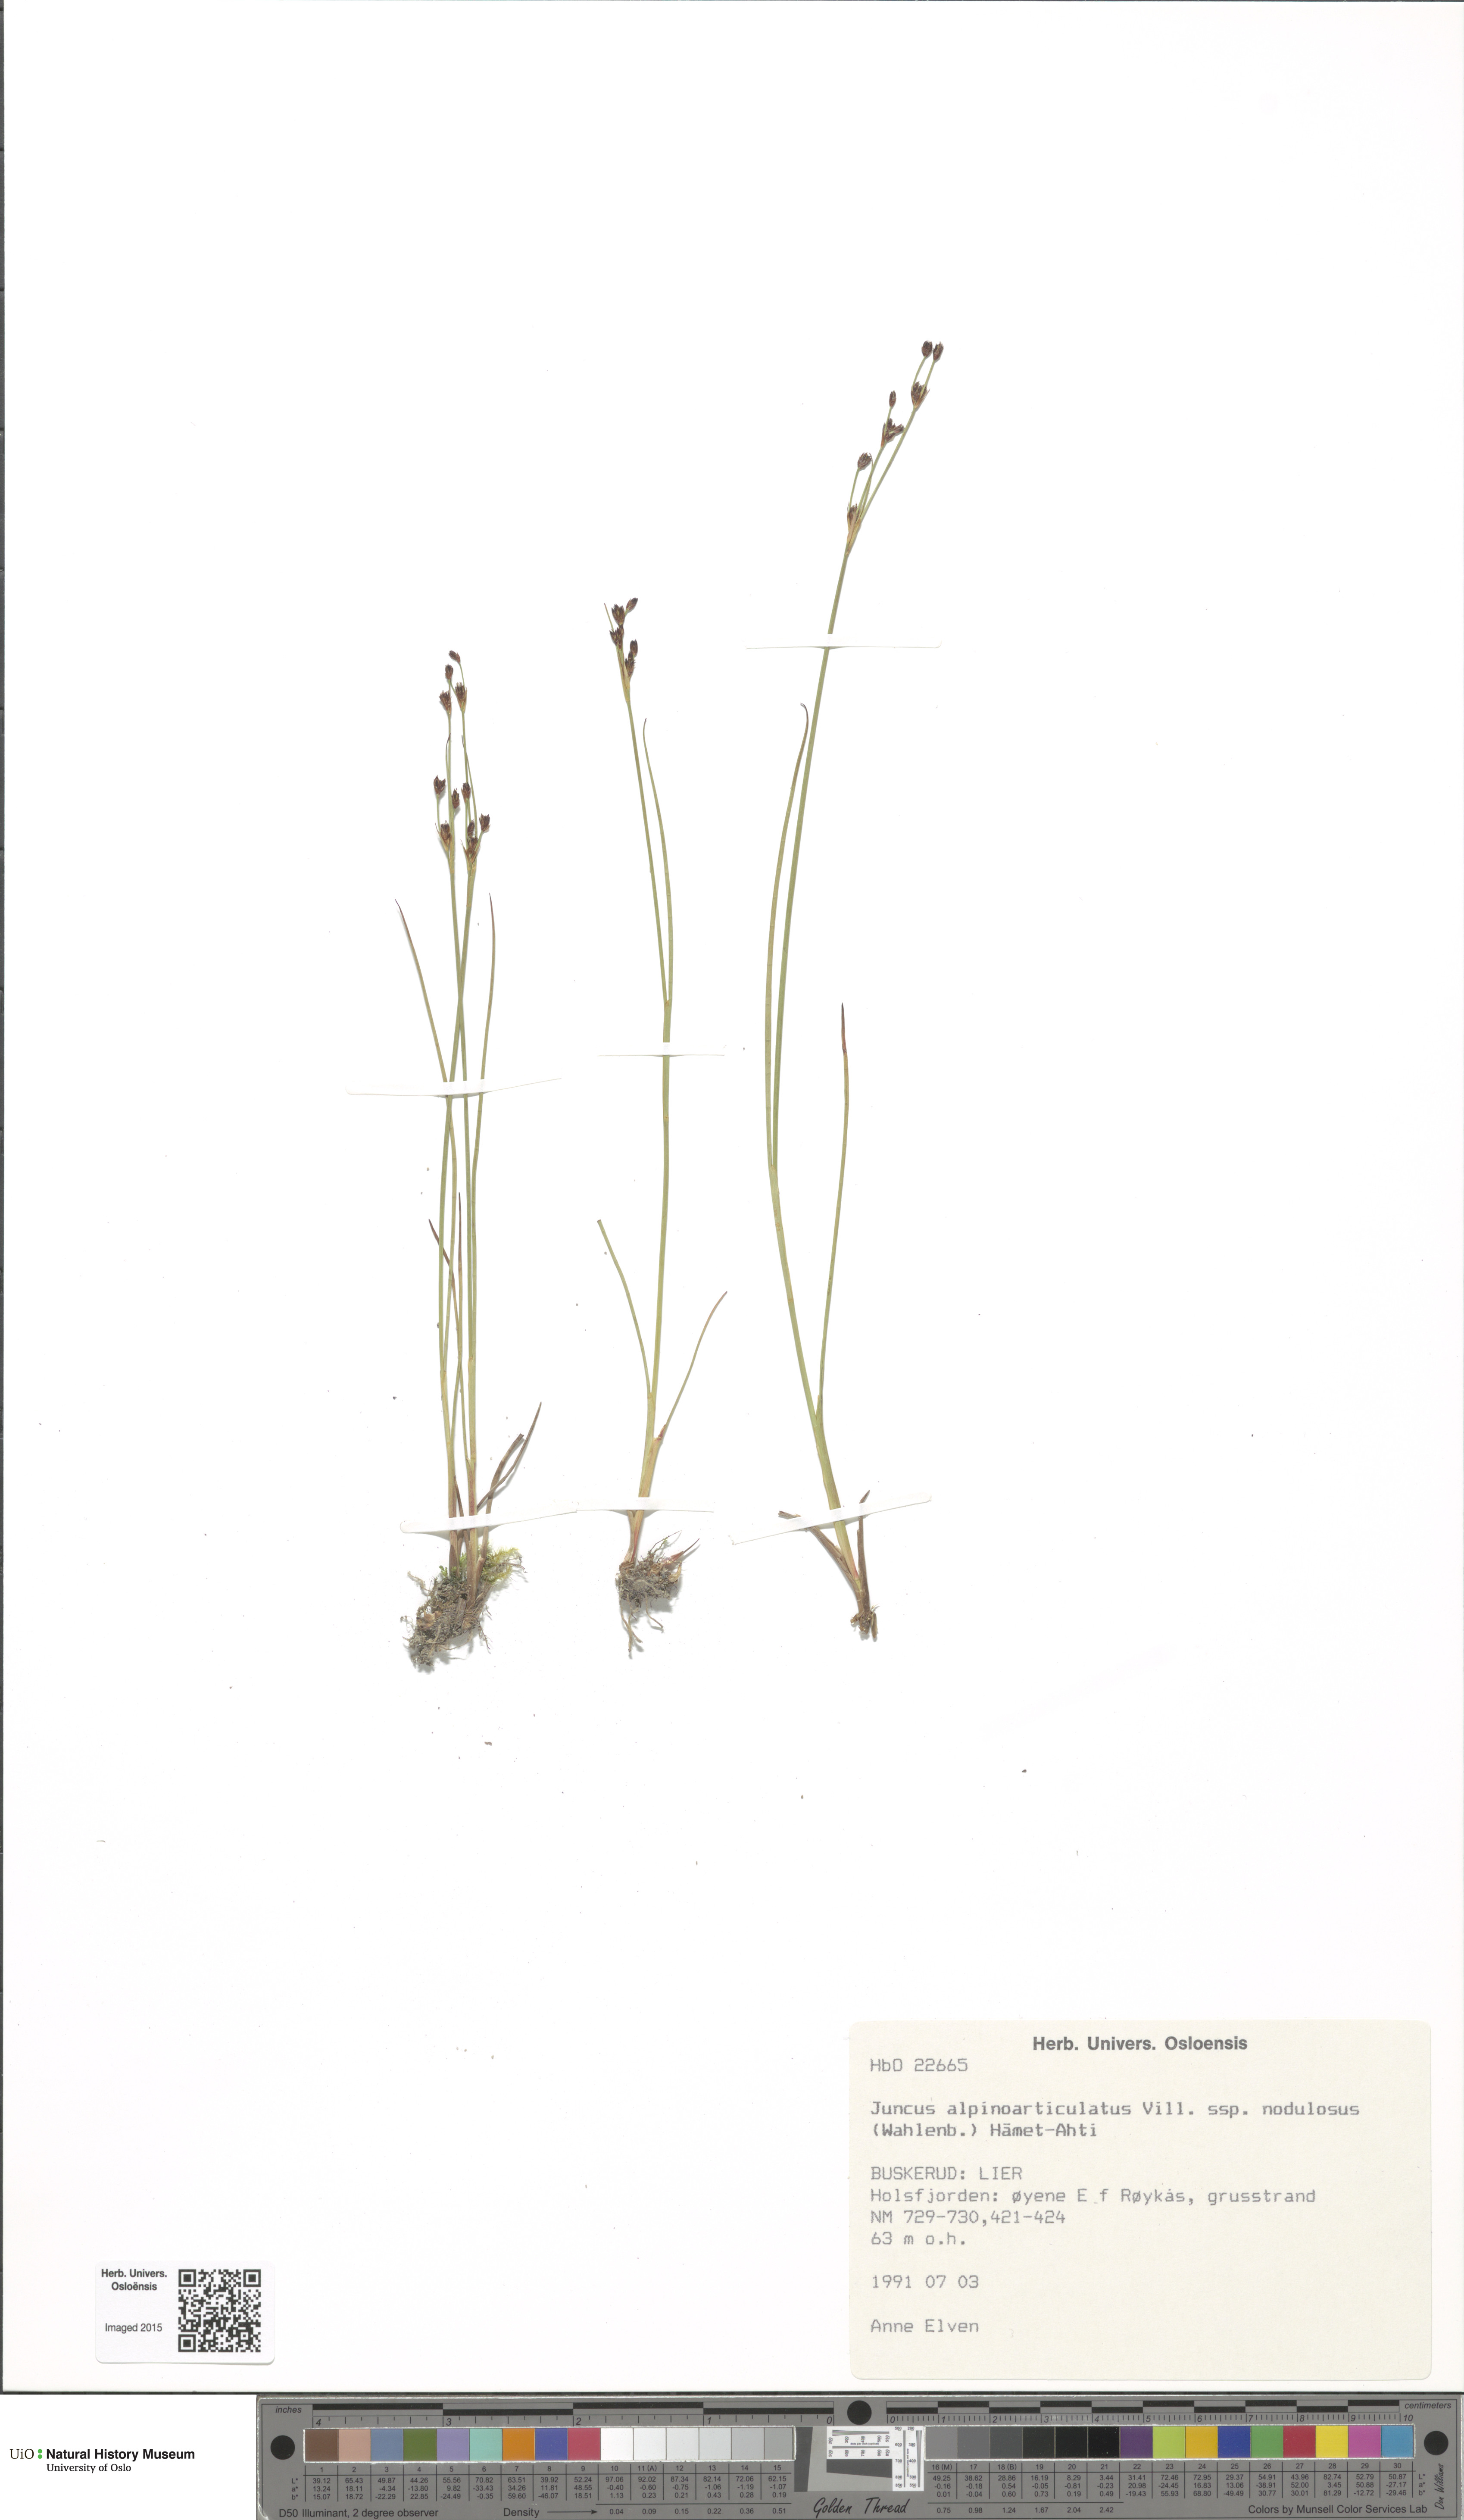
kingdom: Plantae
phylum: Tracheophyta
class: Liliopsida
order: Poales
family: Juncaceae
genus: Juncus
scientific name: Juncus alpinoarticulatus
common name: Alpine rush
